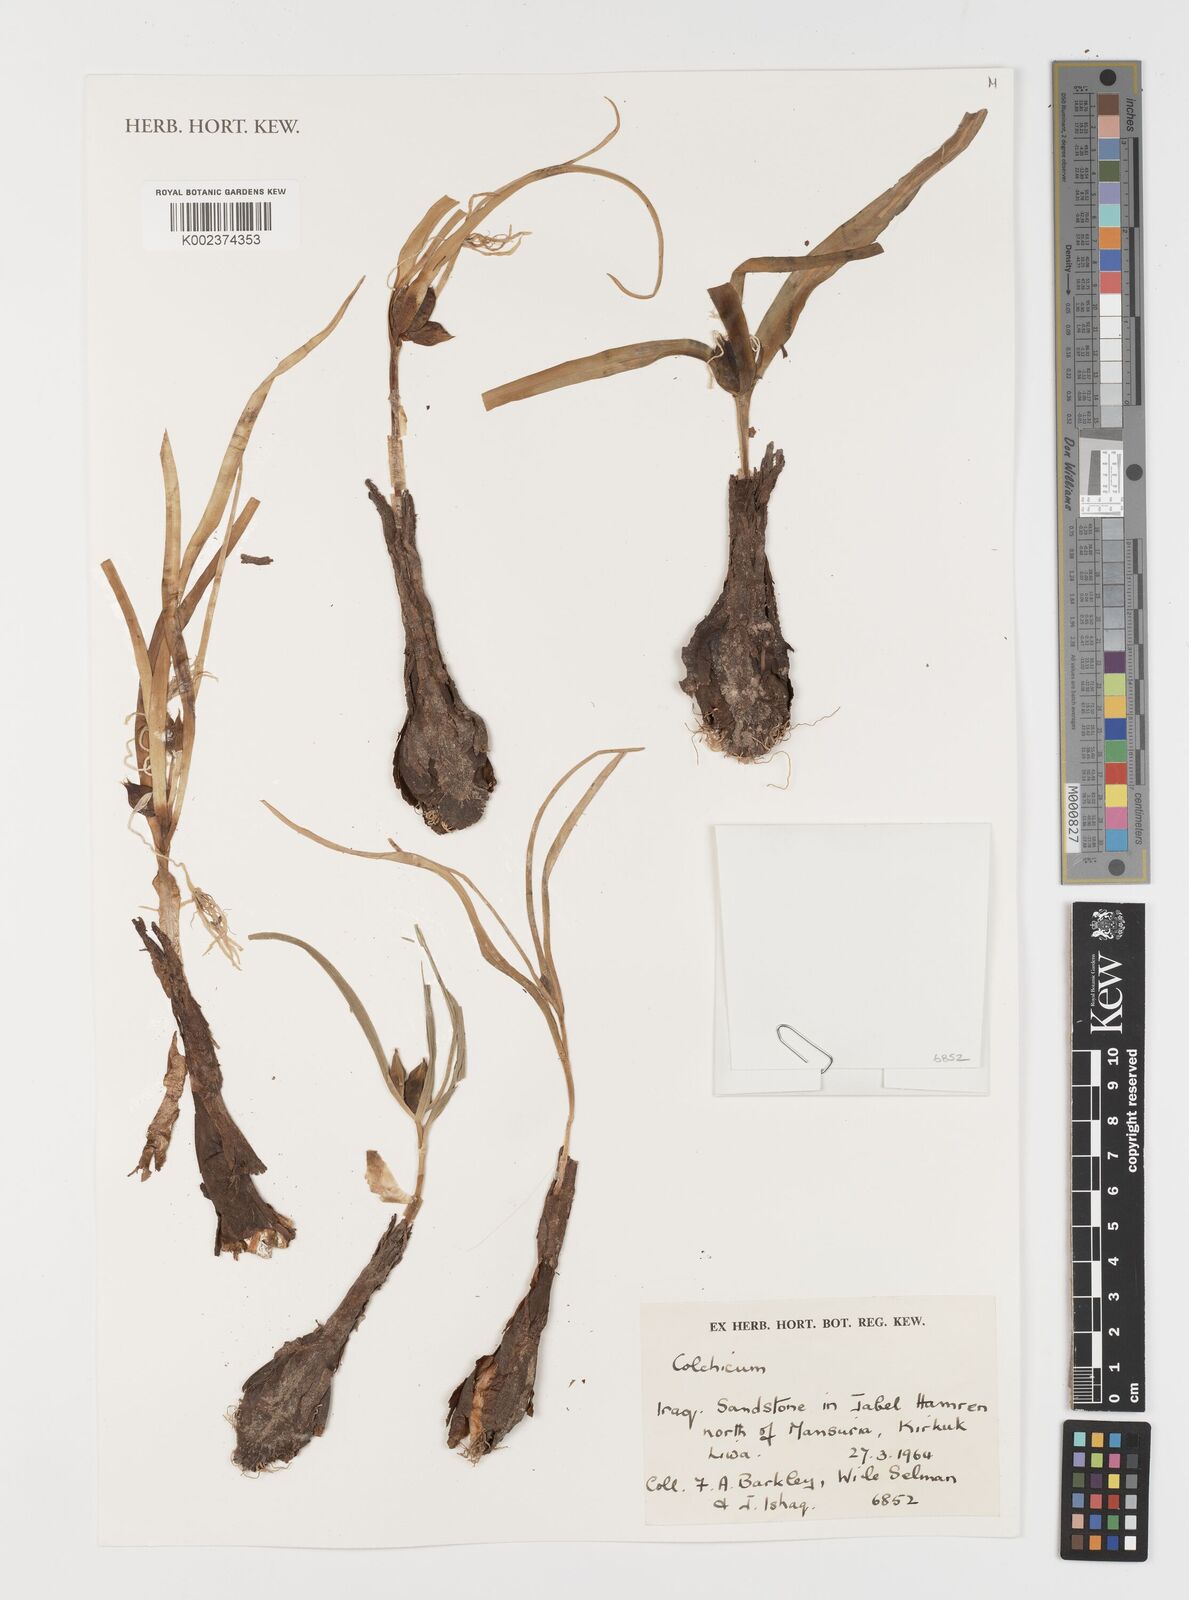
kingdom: Plantae
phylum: Tracheophyta
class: Liliopsida
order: Liliales
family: Colchicaceae
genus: Colchicum
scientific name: Colchicum
